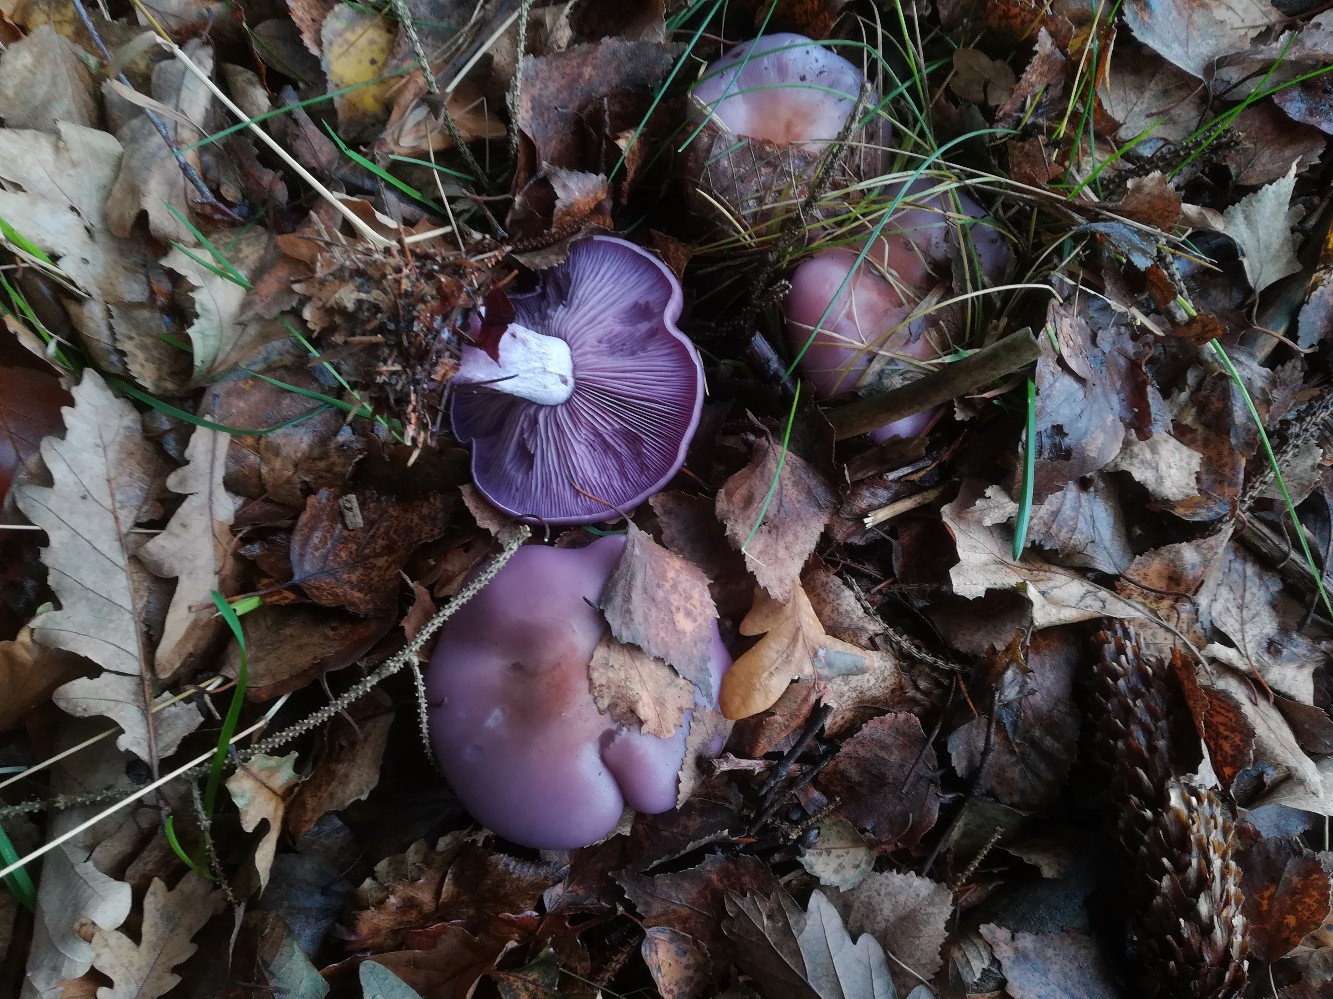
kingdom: Fungi
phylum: Basidiomycota
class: Agaricomycetes
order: Agaricales
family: Tricholomataceae
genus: Lepista
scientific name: Lepista nuda
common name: violet hekseringshat
